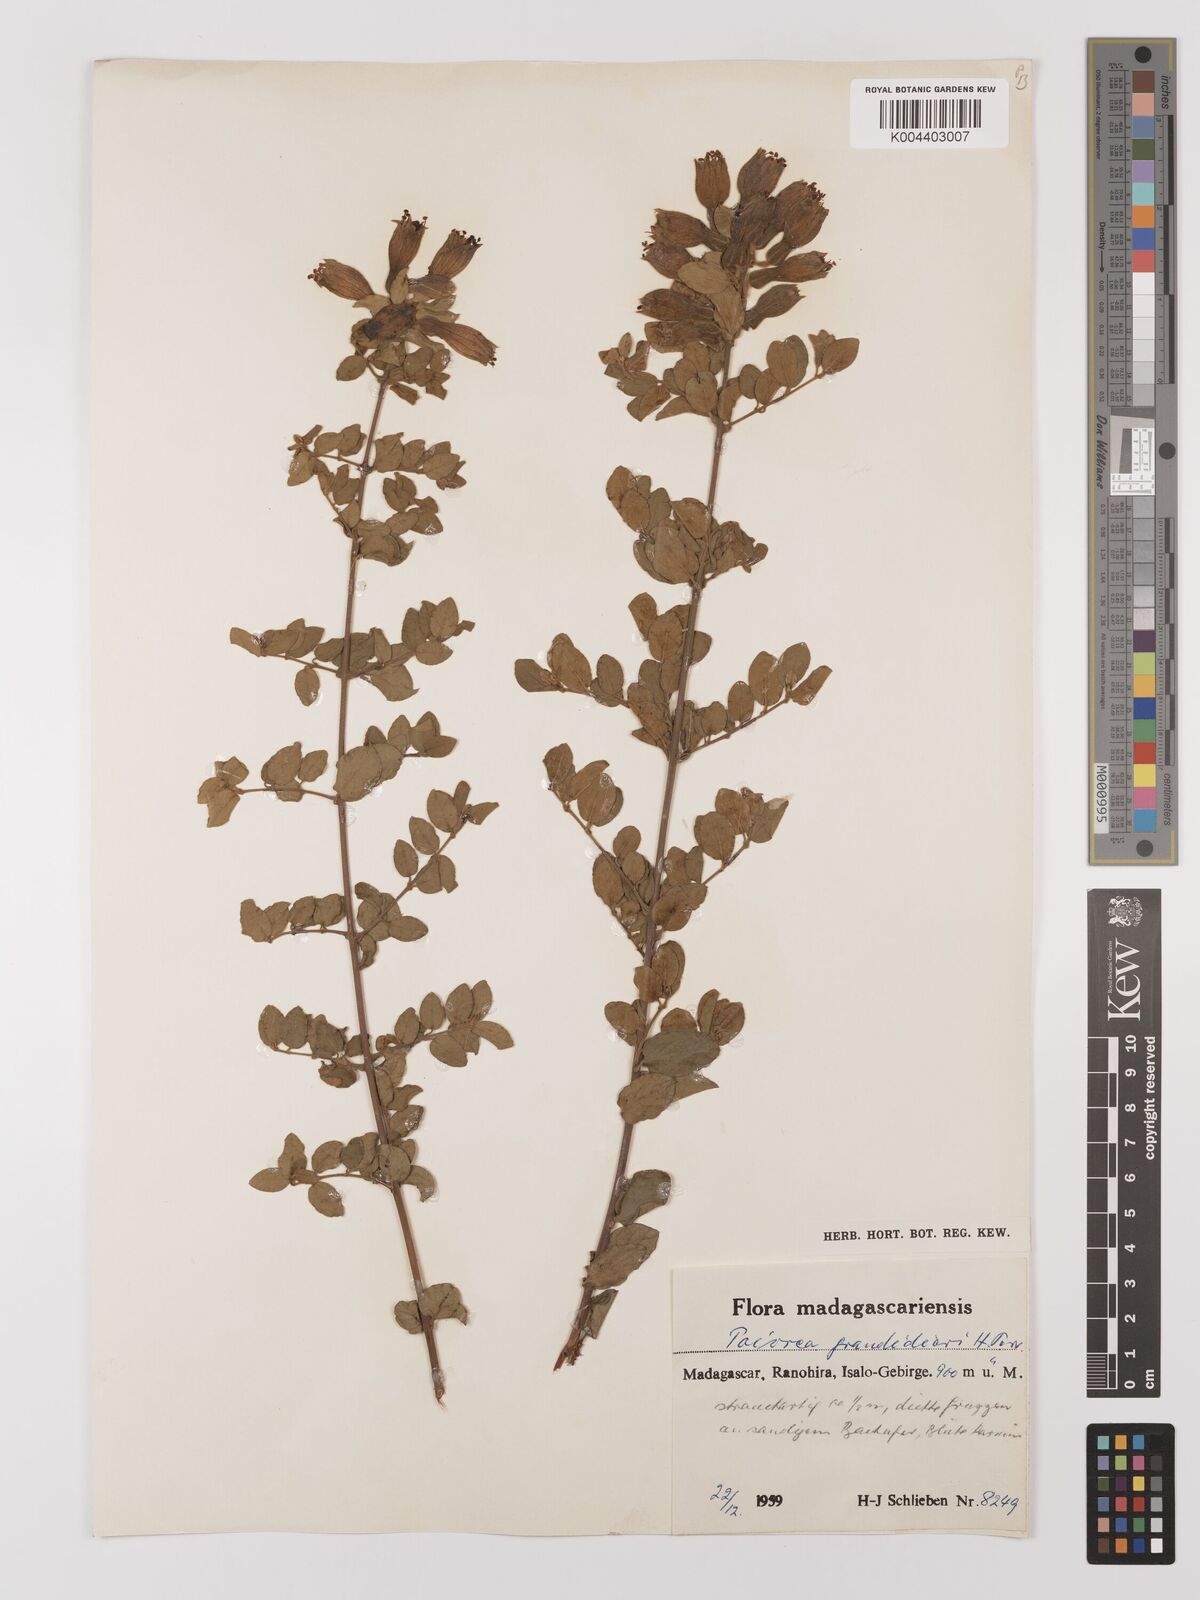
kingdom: Plantae
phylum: Tracheophyta
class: Magnoliopsida
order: Myrtales
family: Combretaceae
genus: Combretum
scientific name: Combretum grandidieri
